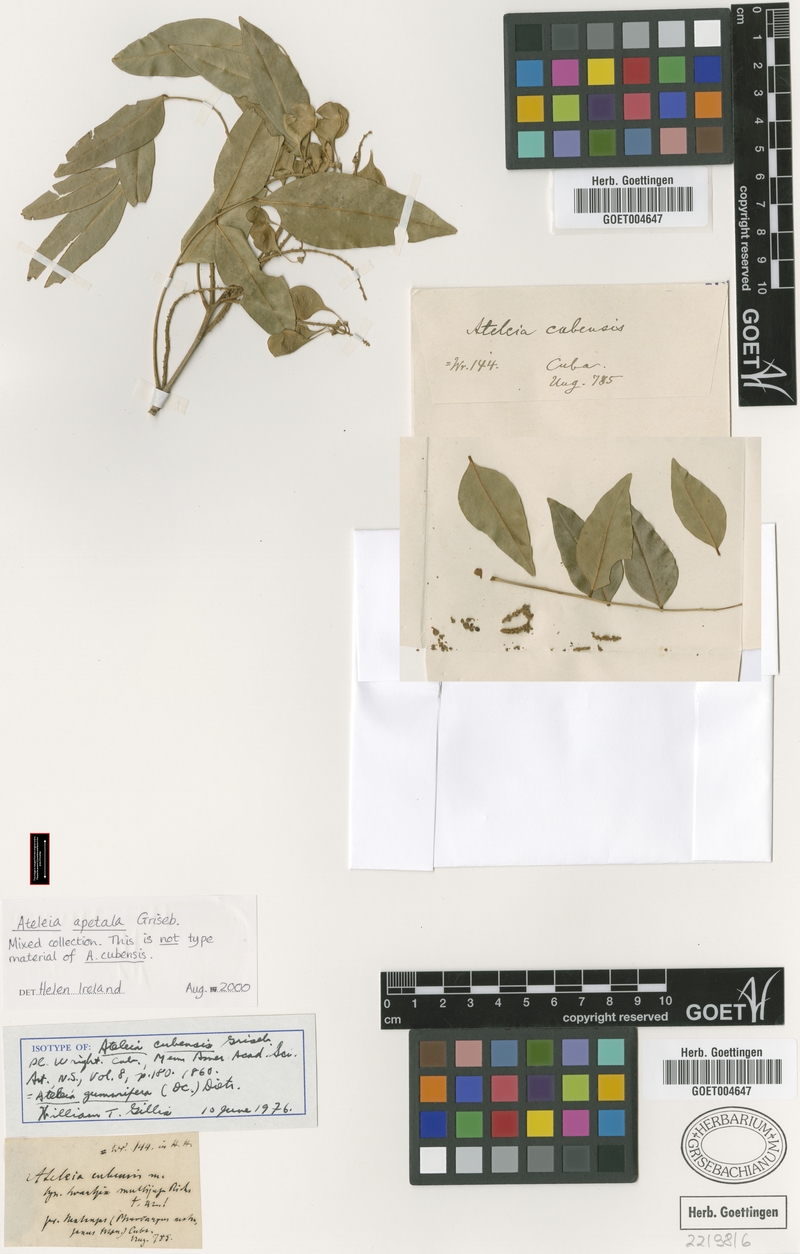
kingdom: Plantae
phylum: Tracheophyta
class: Magnoliopsida
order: Fabales
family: Fabaceae
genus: Ateleia
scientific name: Ateleia cubensis
